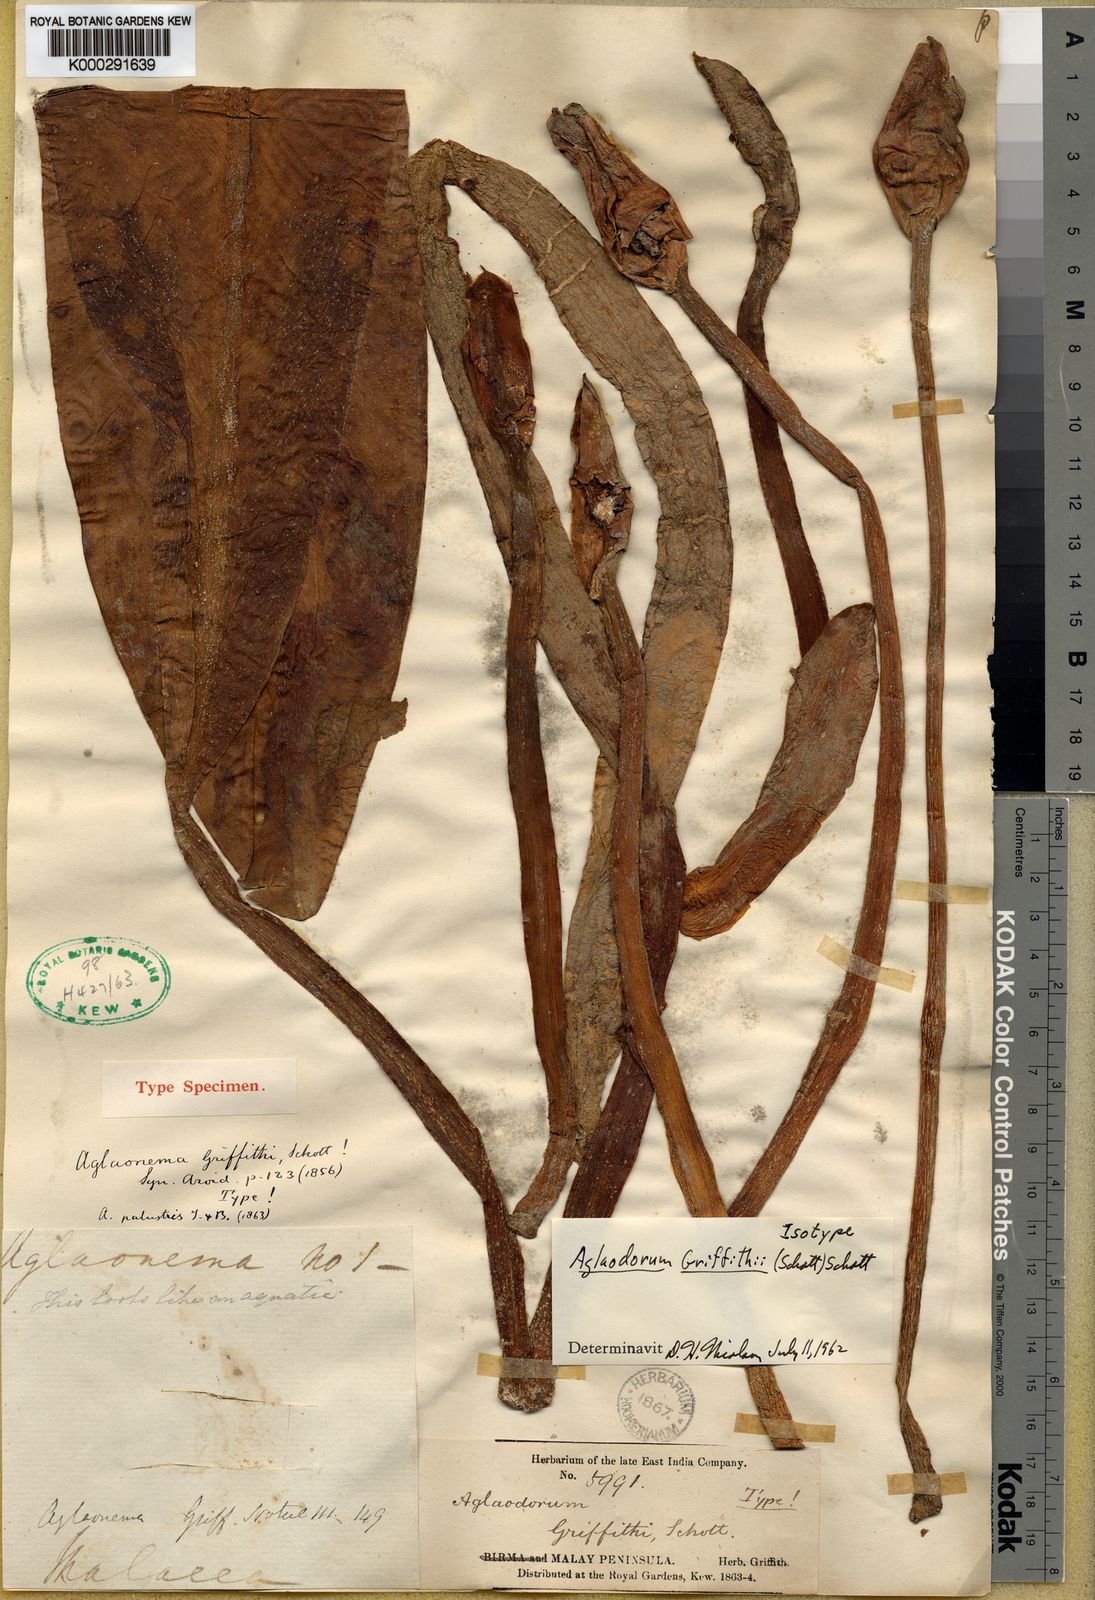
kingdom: Plantae
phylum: Tracheophyta
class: Liliopsida
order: Alismatales
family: Araceae
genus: Aglaodorum
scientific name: Aglaodorum griffithii
